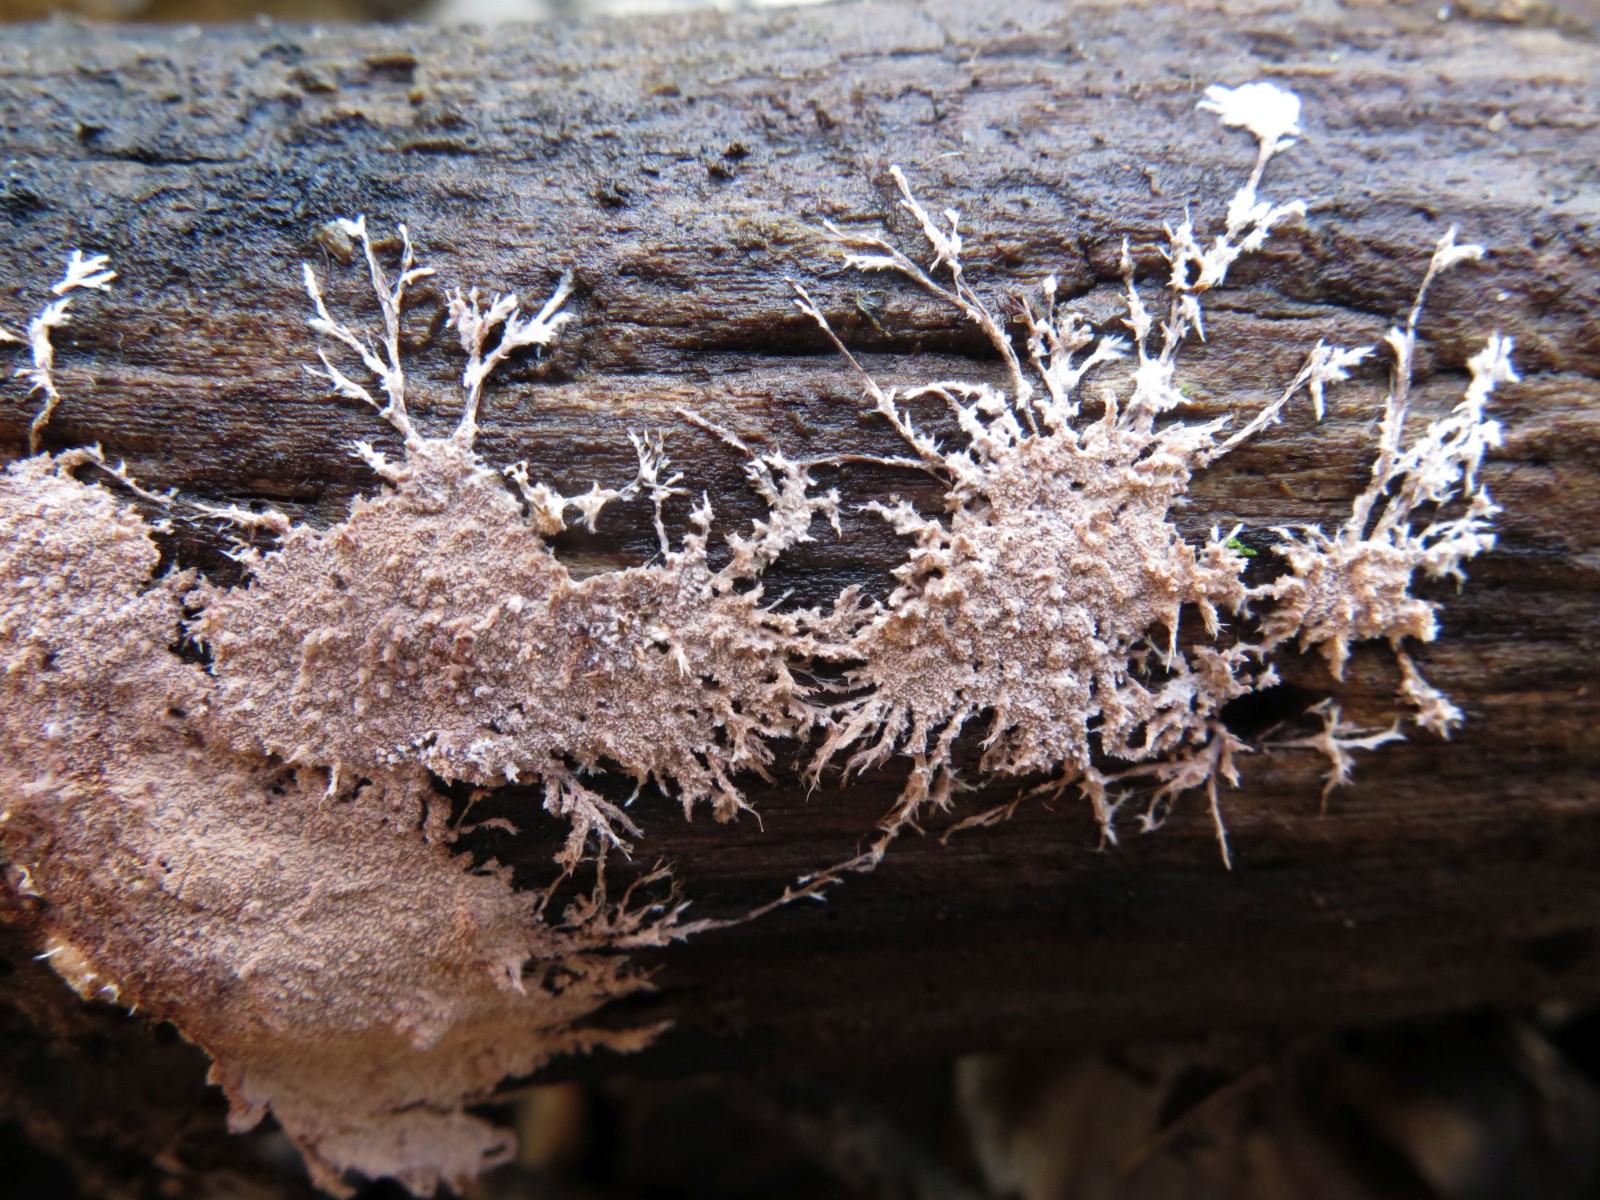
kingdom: Fungi
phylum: Basidiomycota
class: Agaricomycetes
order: Polyporales
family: Steccherinaceae
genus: Steccherinum
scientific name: Steccherinum fimbriatum
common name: trådet skønpig
